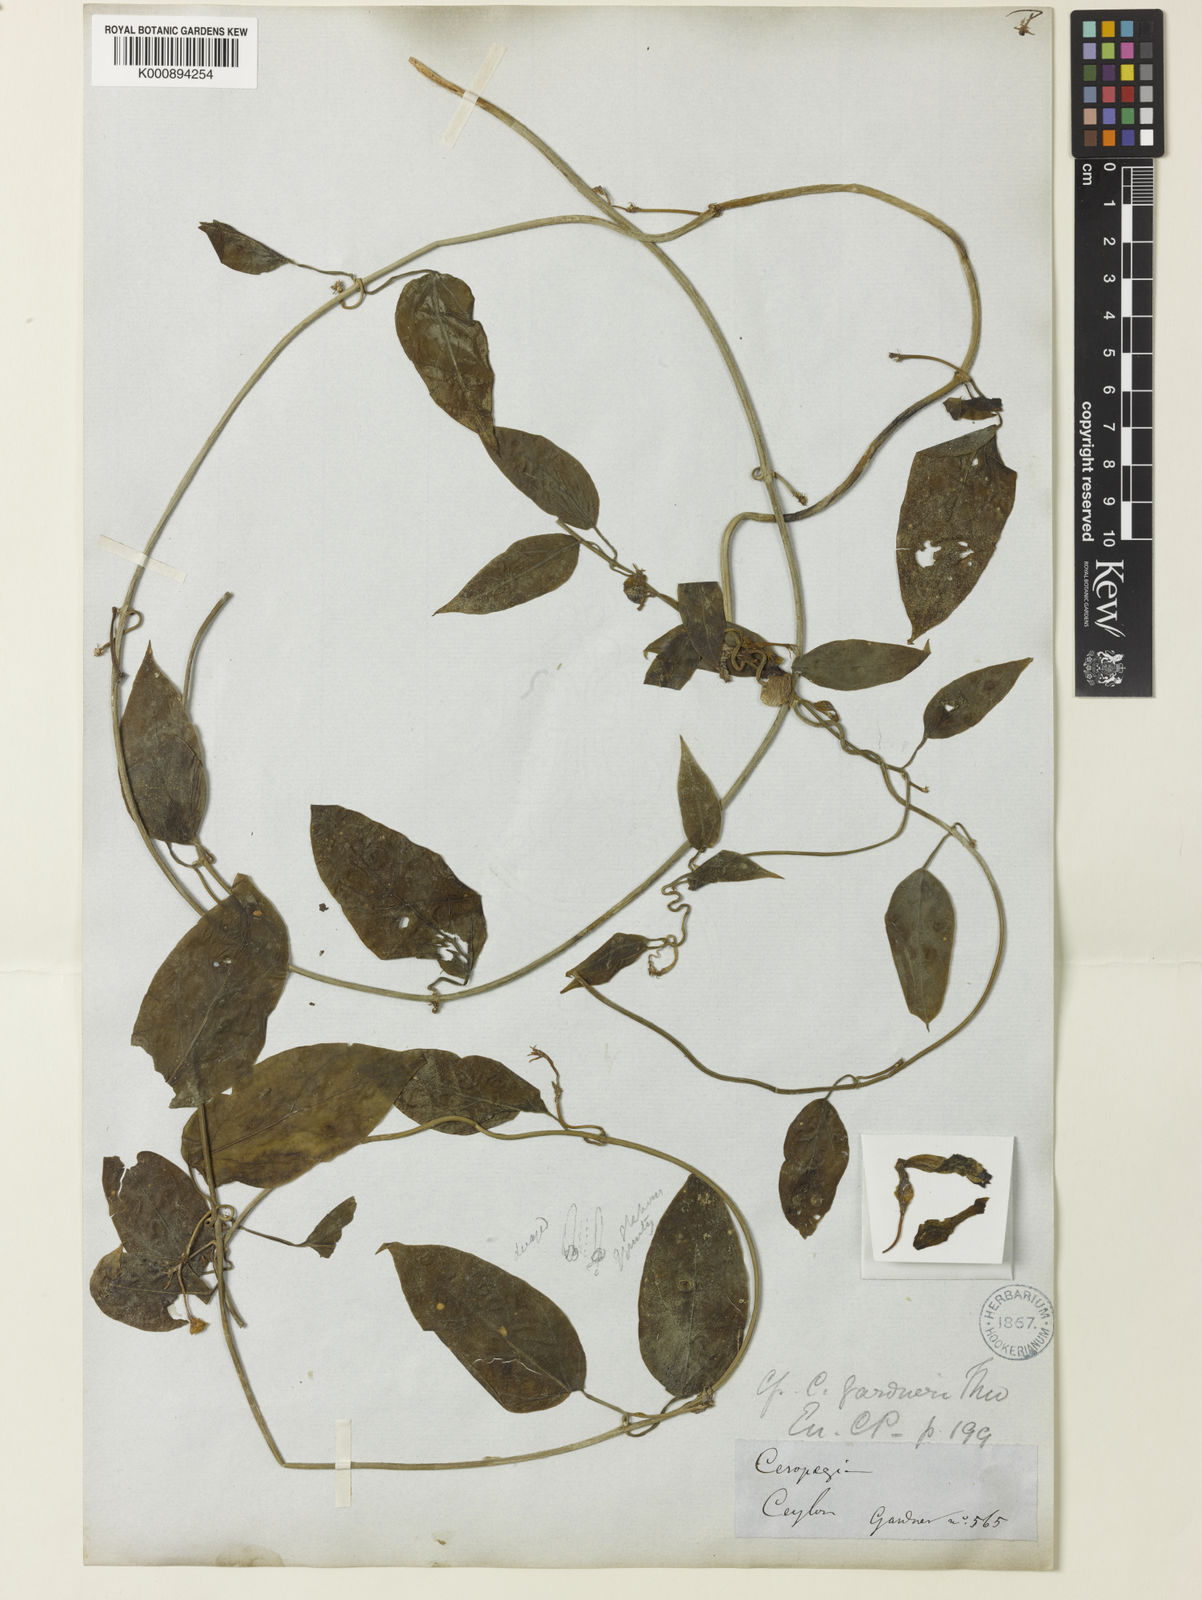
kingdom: Plantae
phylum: Tracheophyta
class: Magnoliopsida
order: Gentianales
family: Apocynaceae
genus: Ceropegia
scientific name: Ceropegia
